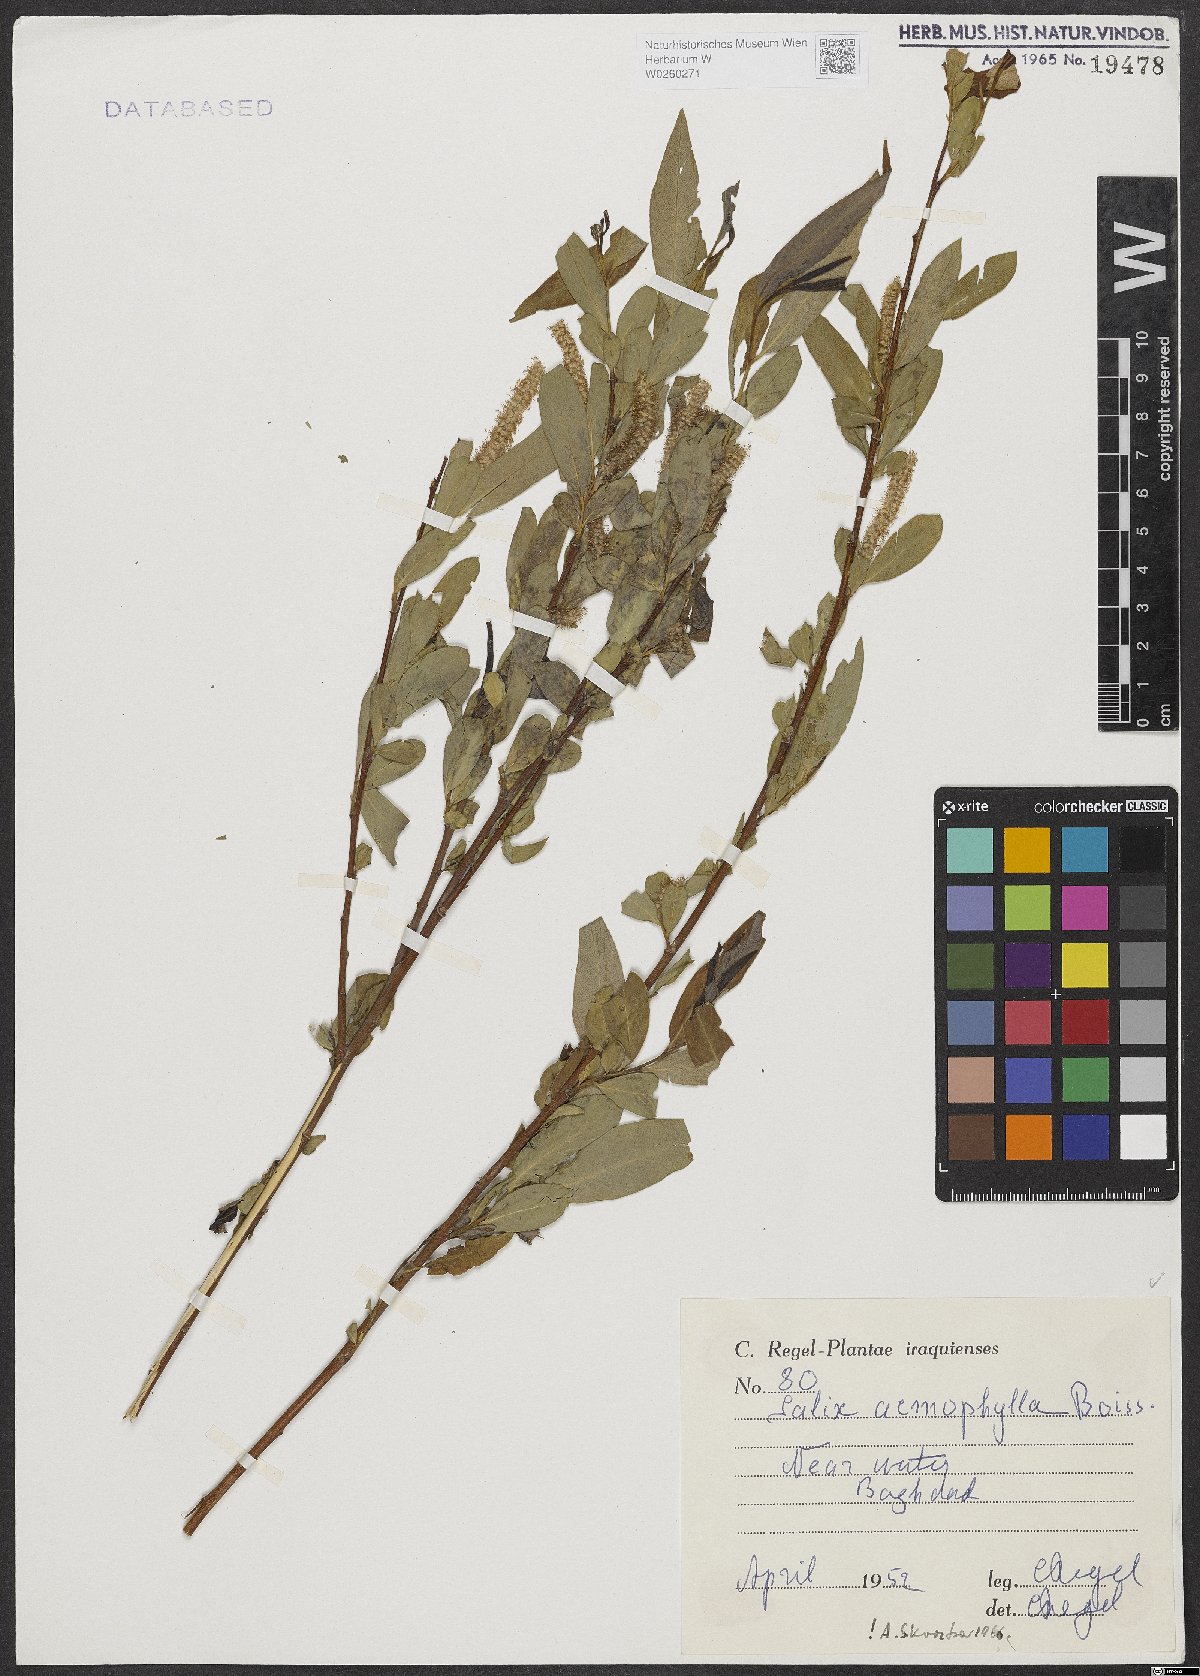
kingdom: Plantae
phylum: Tracheophyta
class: Magnoliopsida
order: Malpighiales
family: Salicaceae
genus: Salix
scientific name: Salix acmophylla
